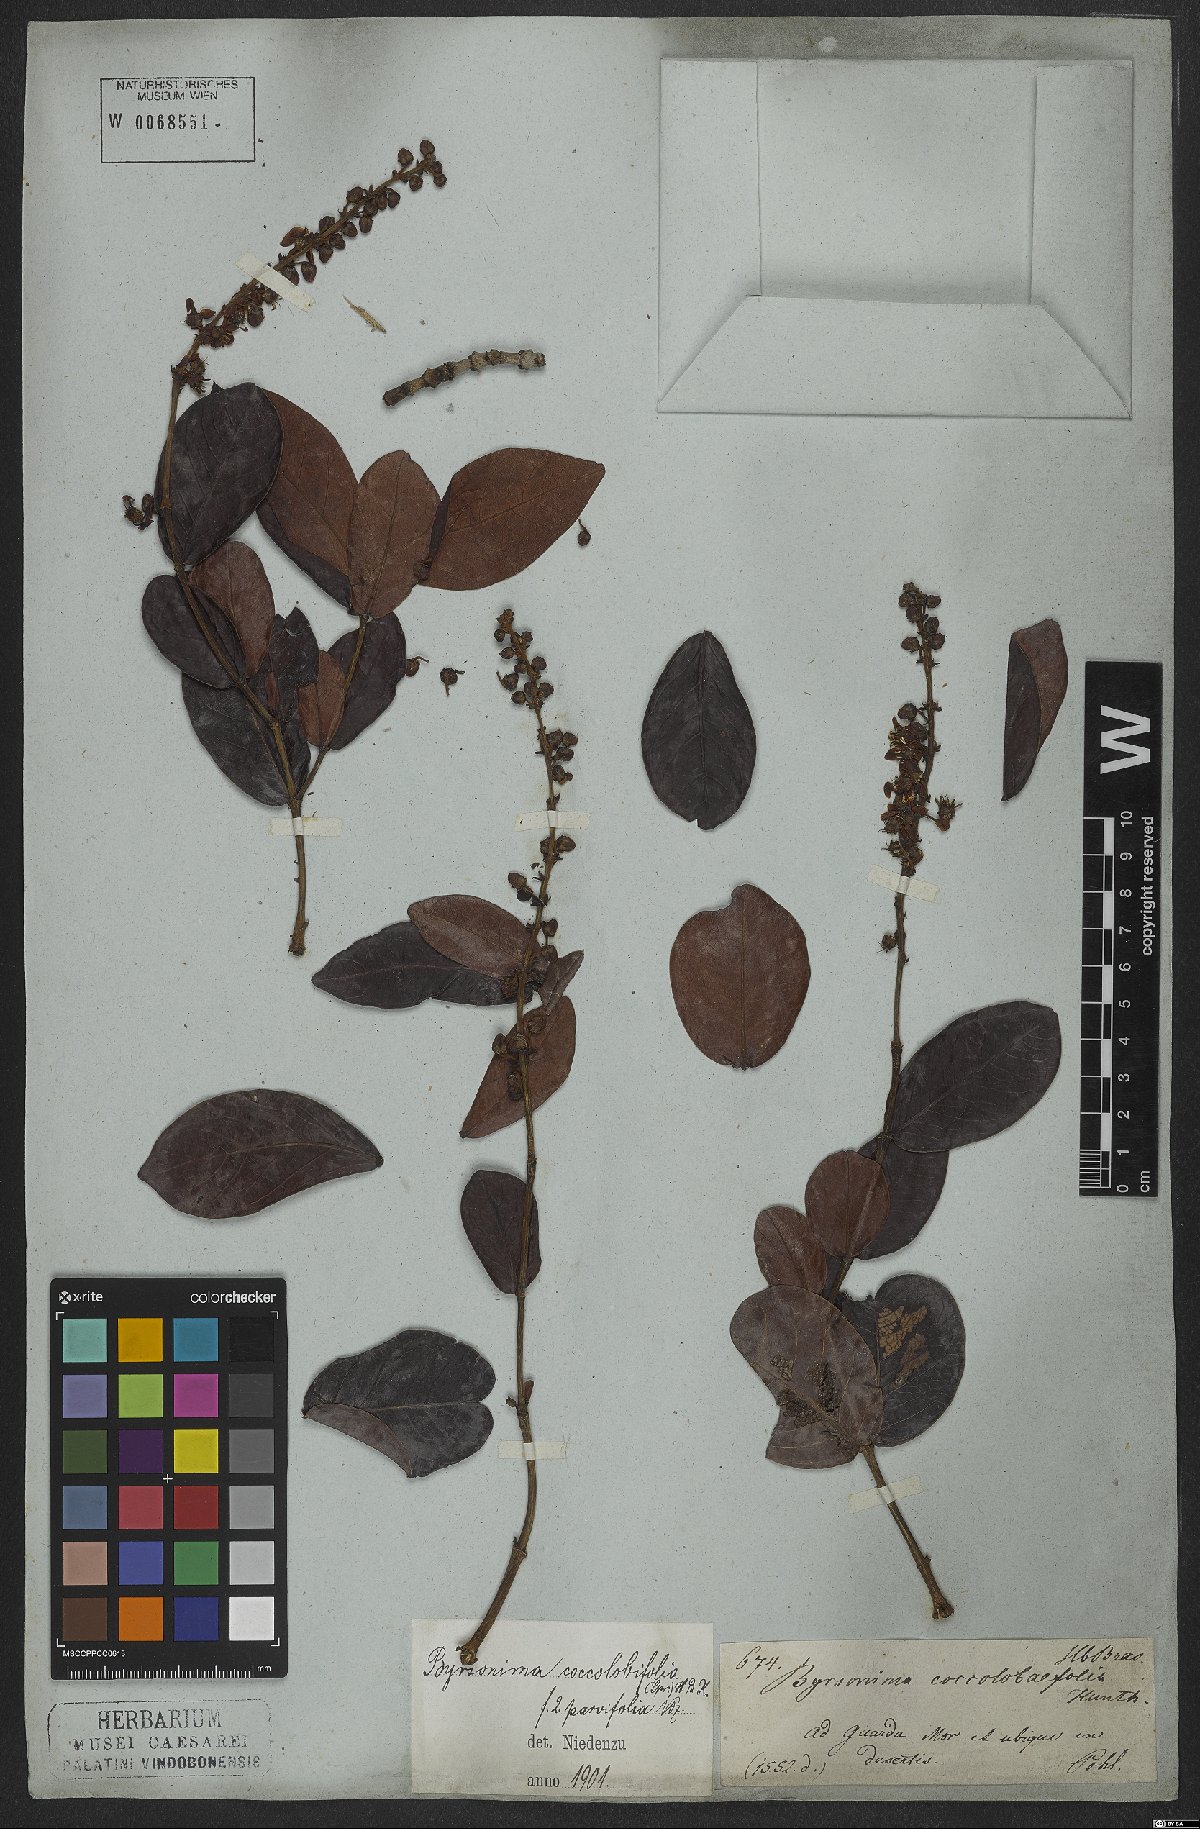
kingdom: Plantae
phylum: Tracheophyta
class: Magnoliopsida
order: Malpighiales
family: Malpighiaceae
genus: Byrsonima
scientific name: Byrsonima coccolobifolia
